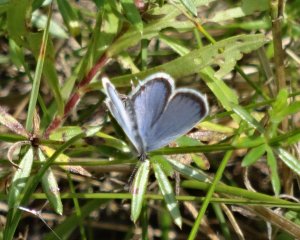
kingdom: Animalia
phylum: Arthropoda
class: Insecta
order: Lepidoptera
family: Lycaenidae
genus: Elkalyce
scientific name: Elkalyce comyntas
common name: Eastern Tailed-Blue
